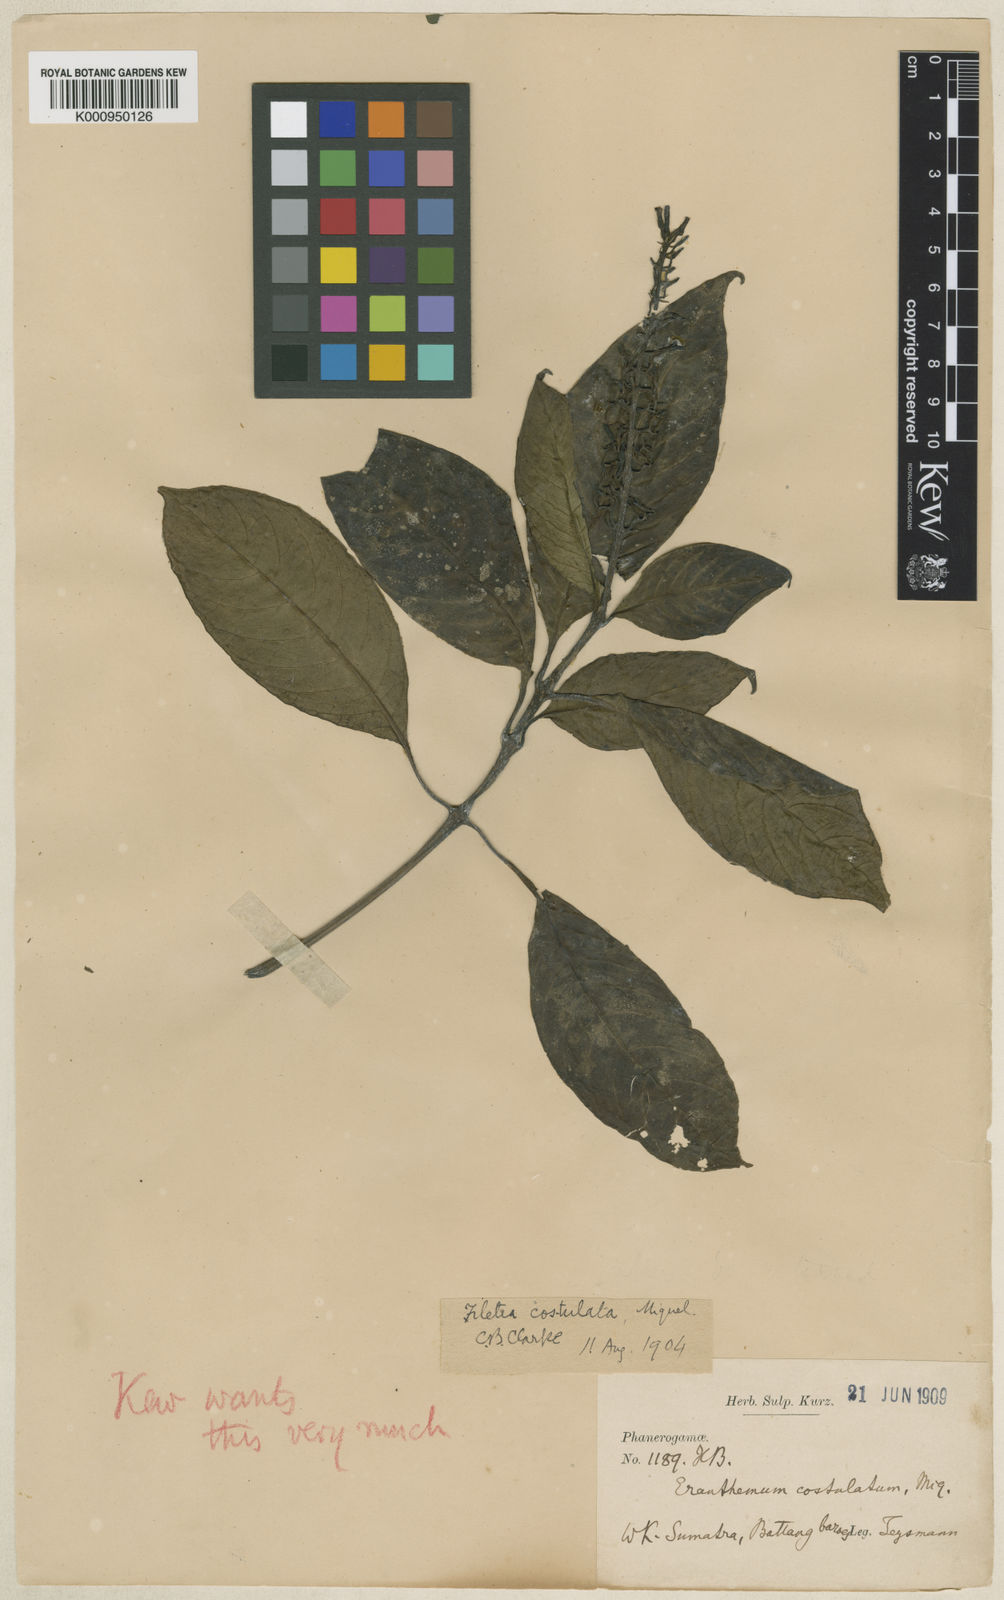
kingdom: Plantae
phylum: Tracheophyta
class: Magnoliopsida
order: Lamiales
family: Acanthaceae
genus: Filetia
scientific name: Filetia costulata
